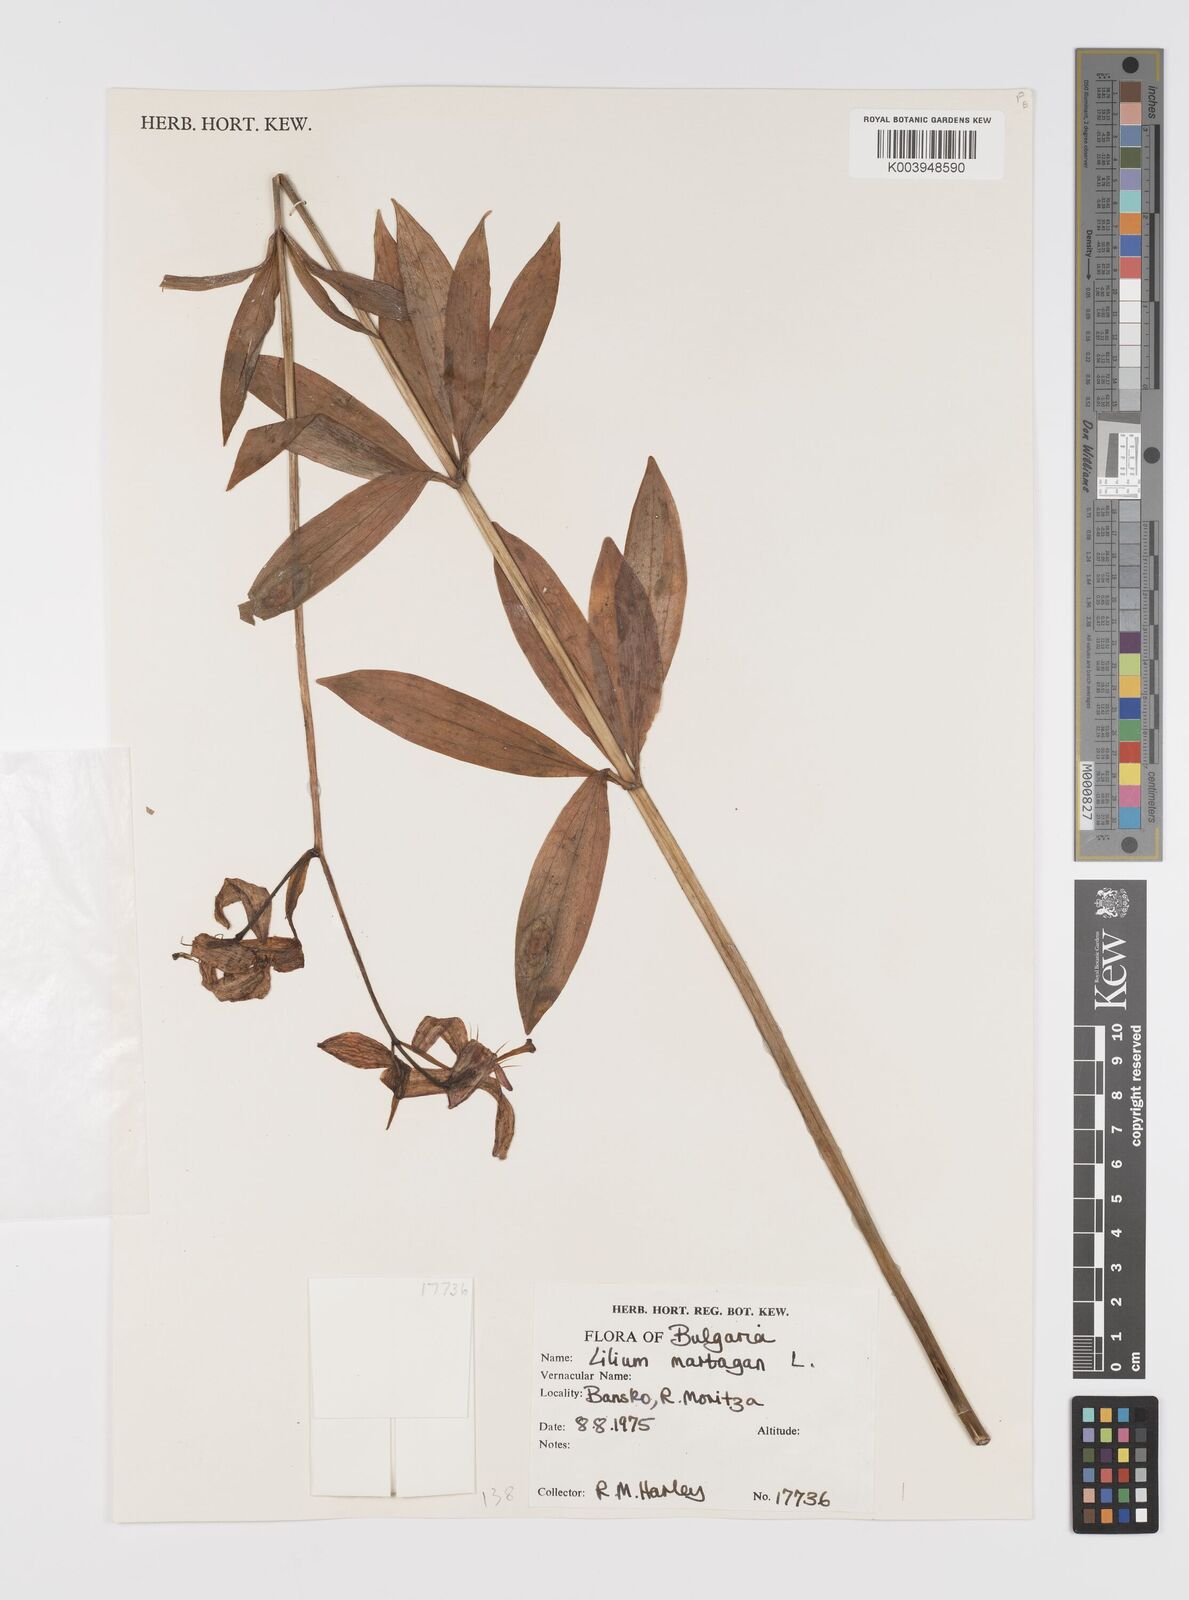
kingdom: Plantae
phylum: Tracheophyta
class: Liliopsida
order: Liliales
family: Liliaceae
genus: Lilium
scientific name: Lilium martagon
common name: Martagon lily
